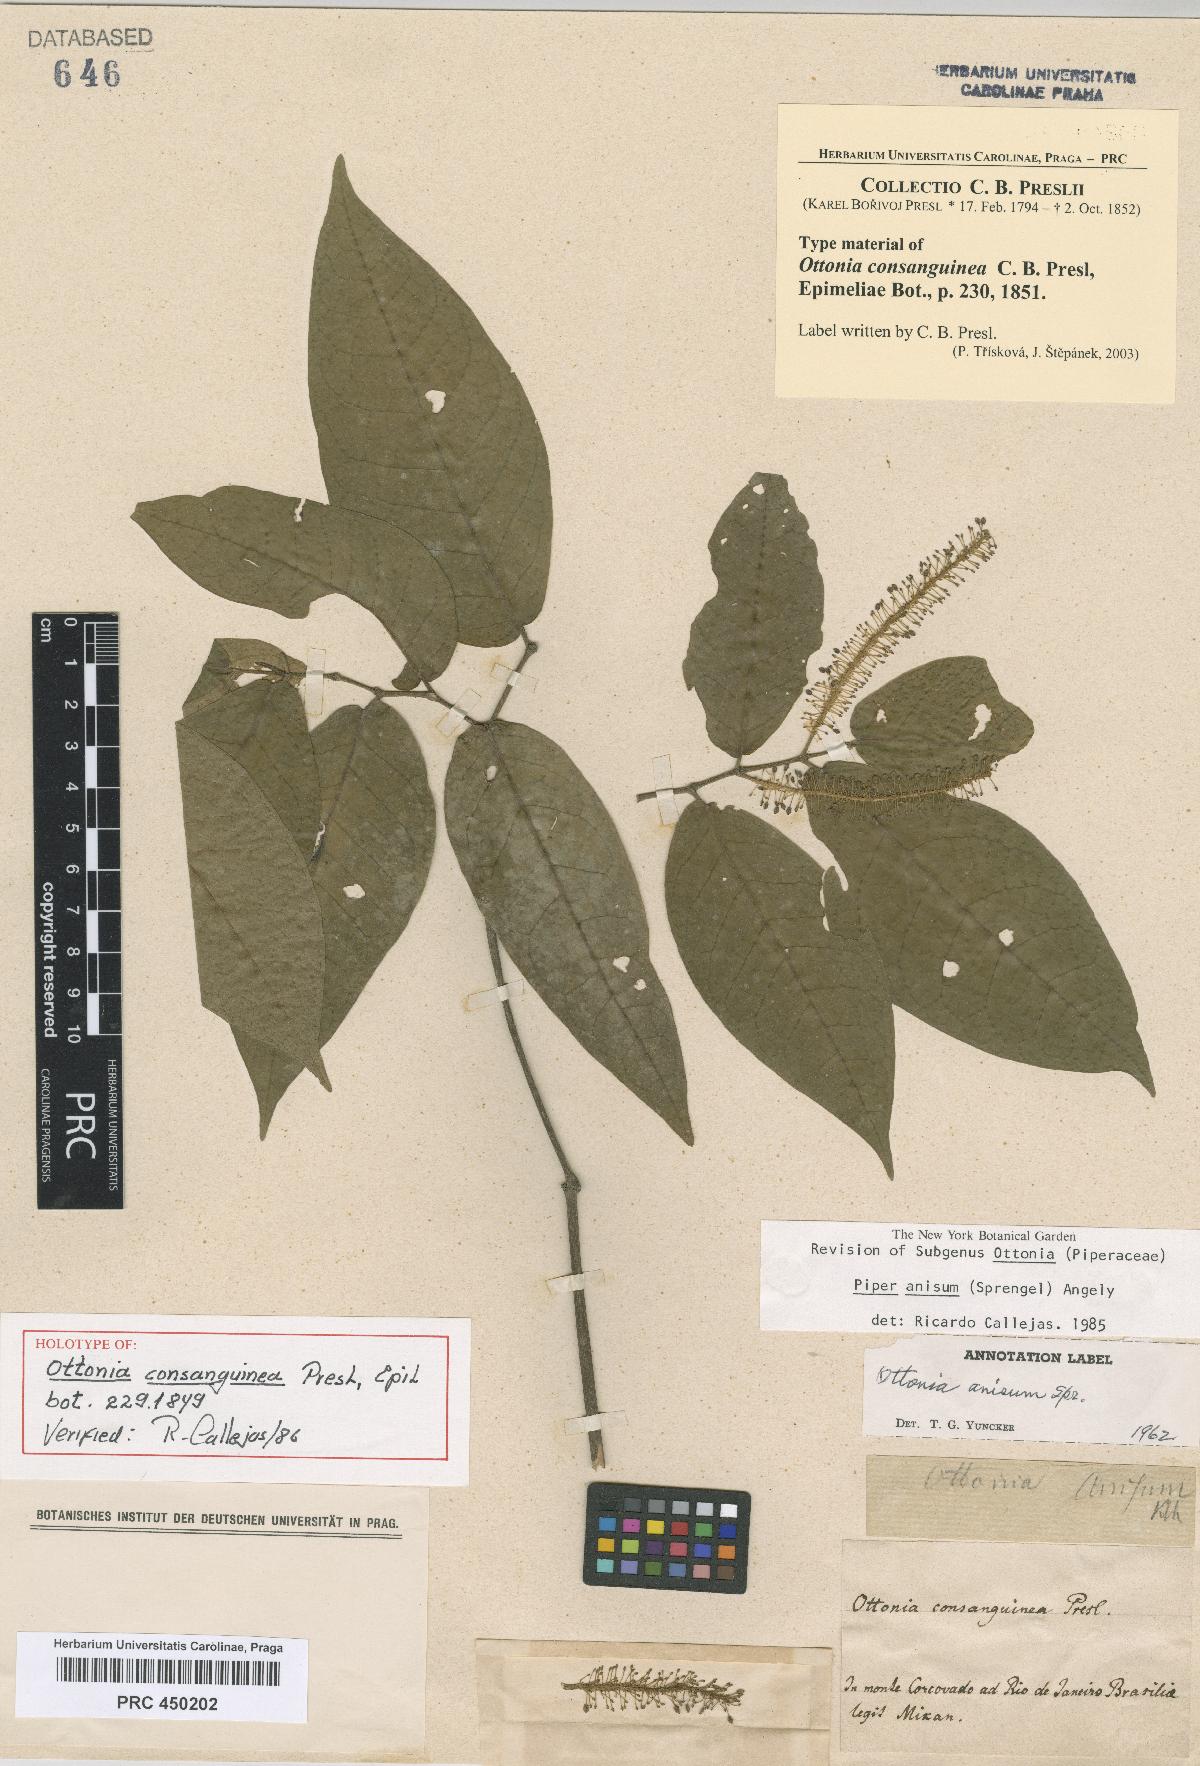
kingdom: Plantae
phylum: Tracheophyta
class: Magnoliopsida
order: Piperales
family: Piperaceae
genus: Piper
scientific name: Piper anisum
